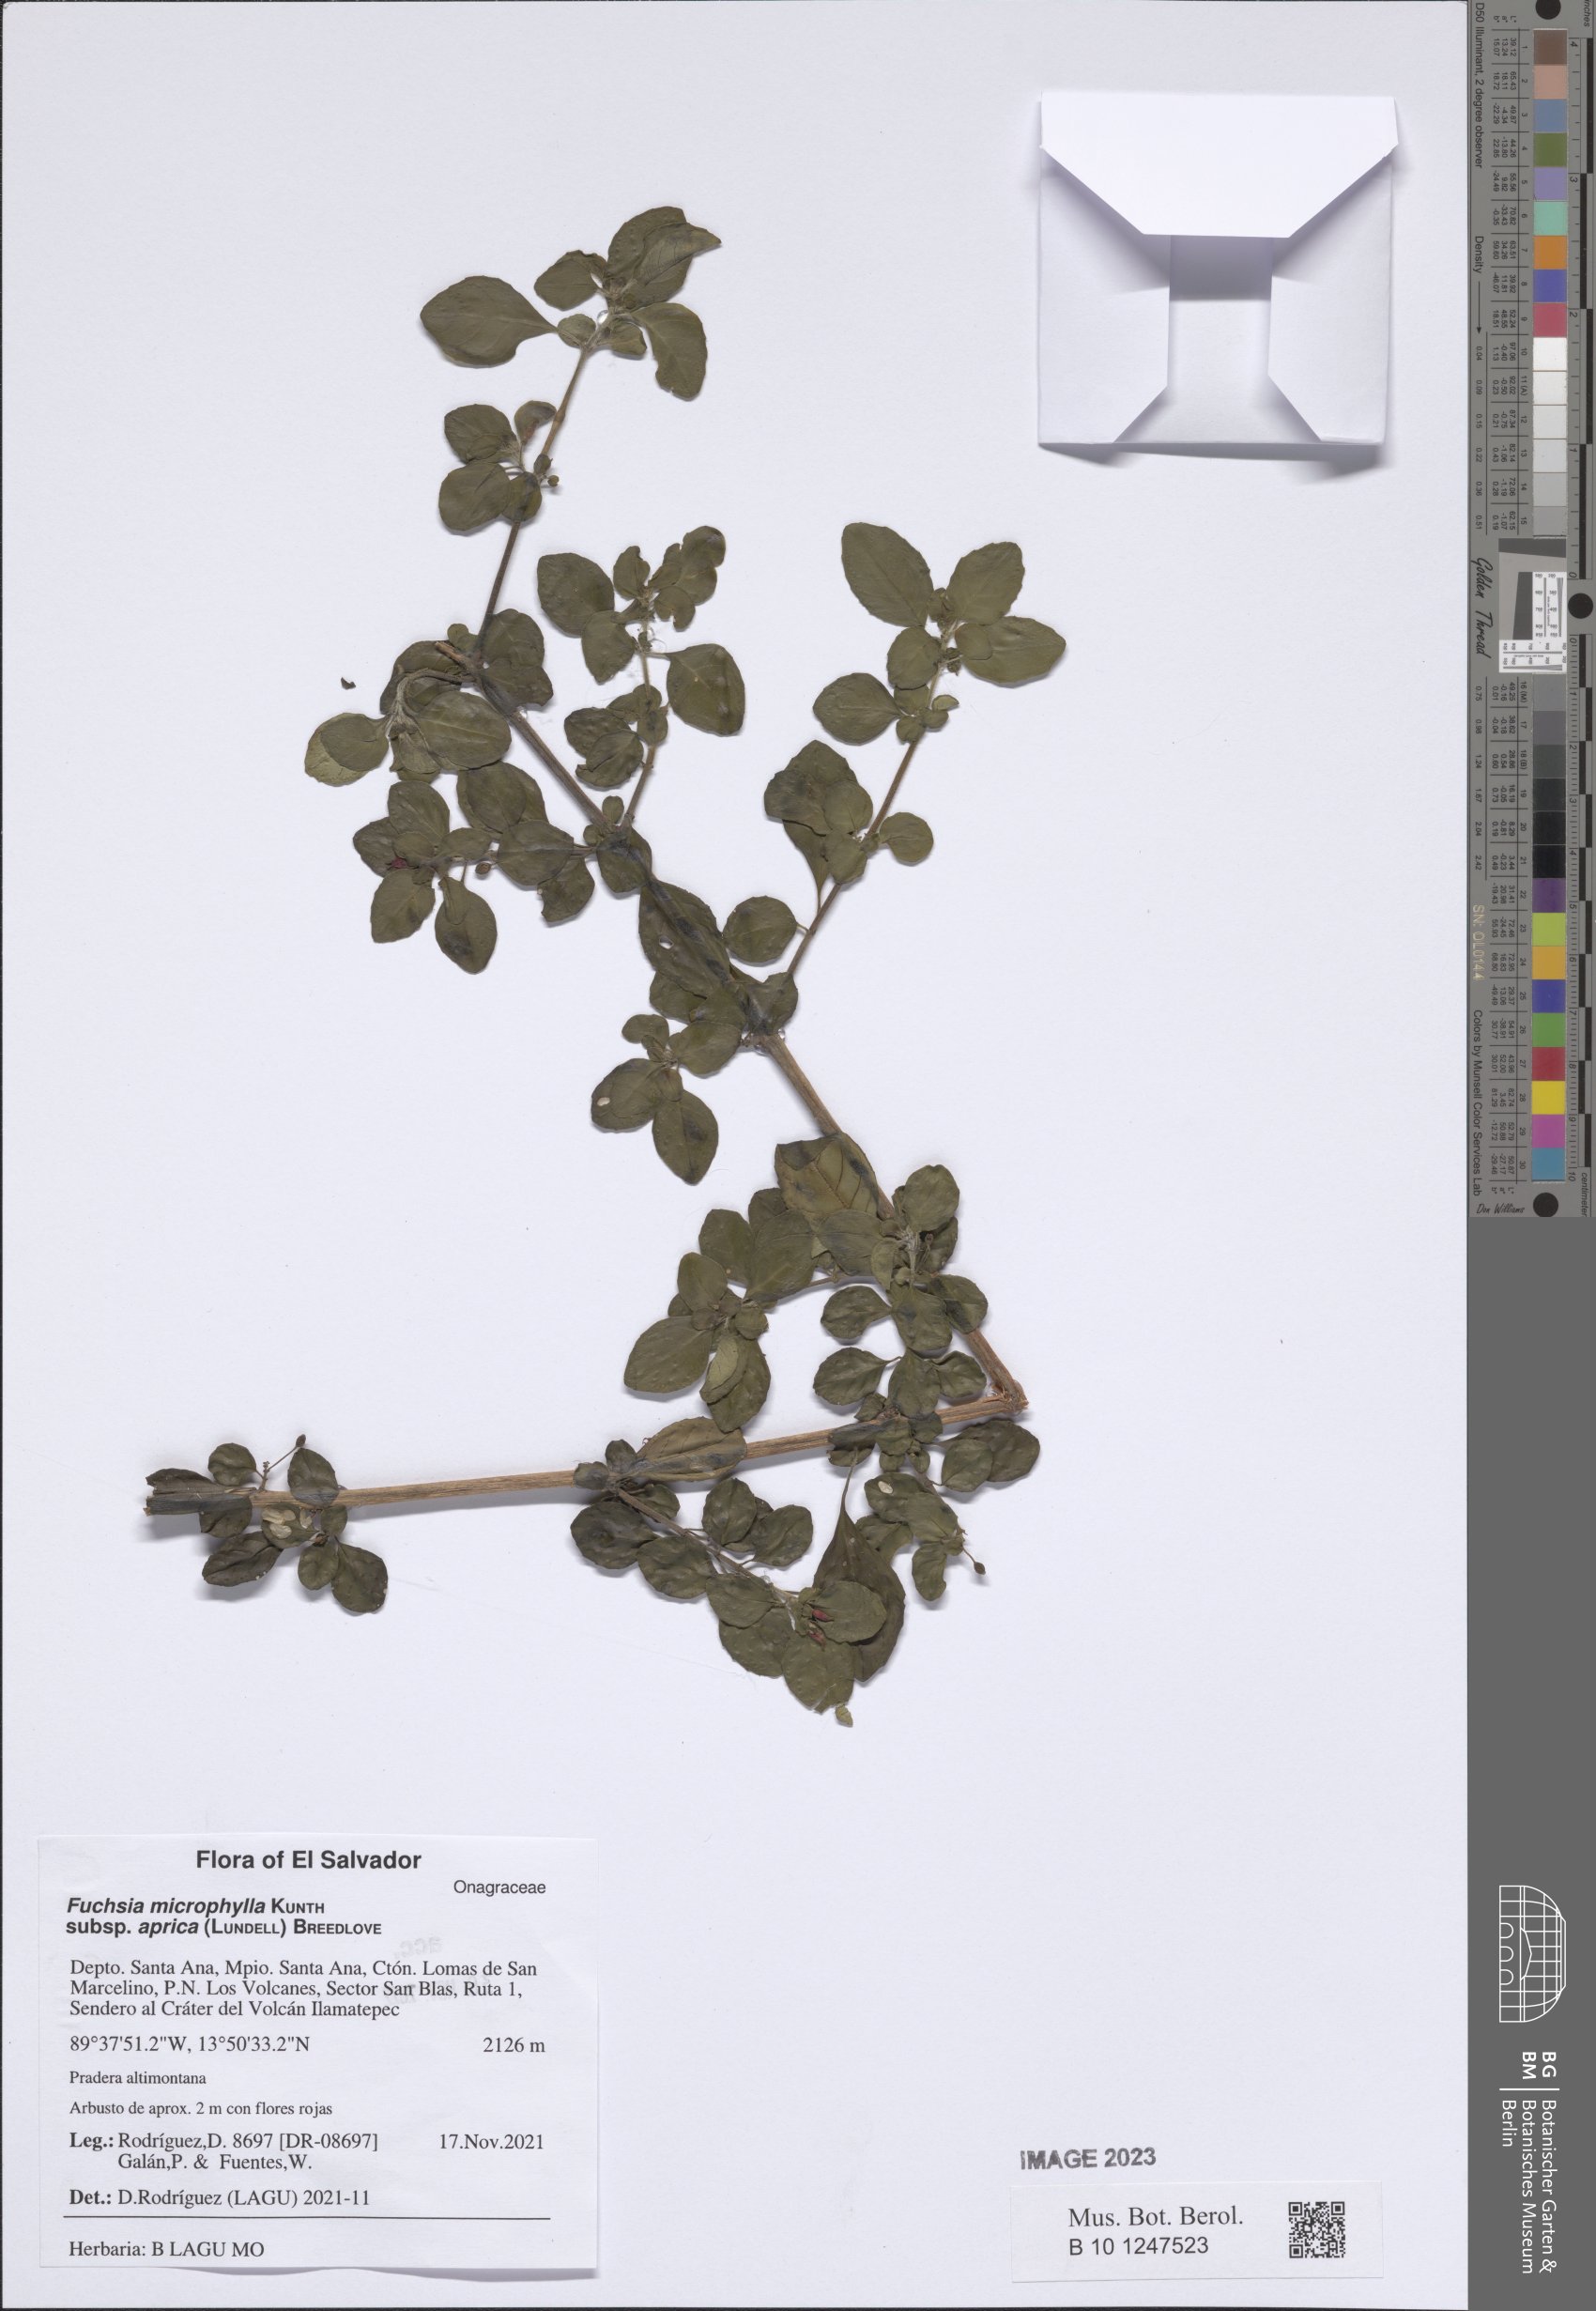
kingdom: Plantae
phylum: Tracheophyta
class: Magnoliopsida
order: Myrtales
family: Onagraceae
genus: Fuchsia
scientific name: Fuchsia microphylla
